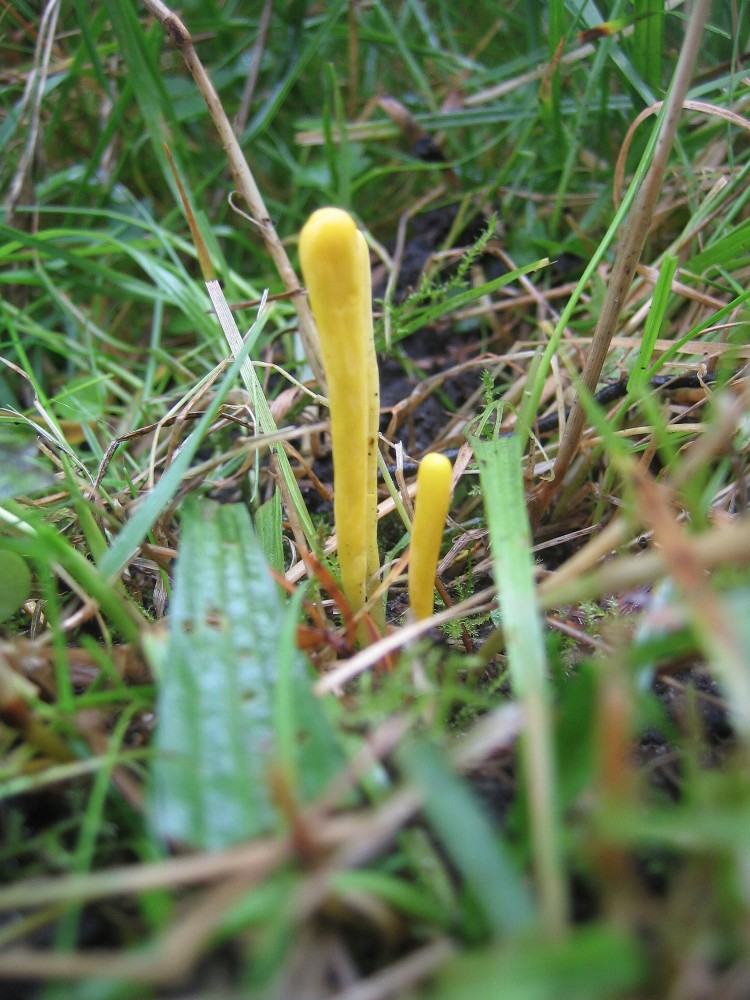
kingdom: Fungi
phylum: Basidiomycota
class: Agaricomycetes
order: Agaricales
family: Clavariaceae
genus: Clavulinopsis
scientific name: Clavulinopsis
